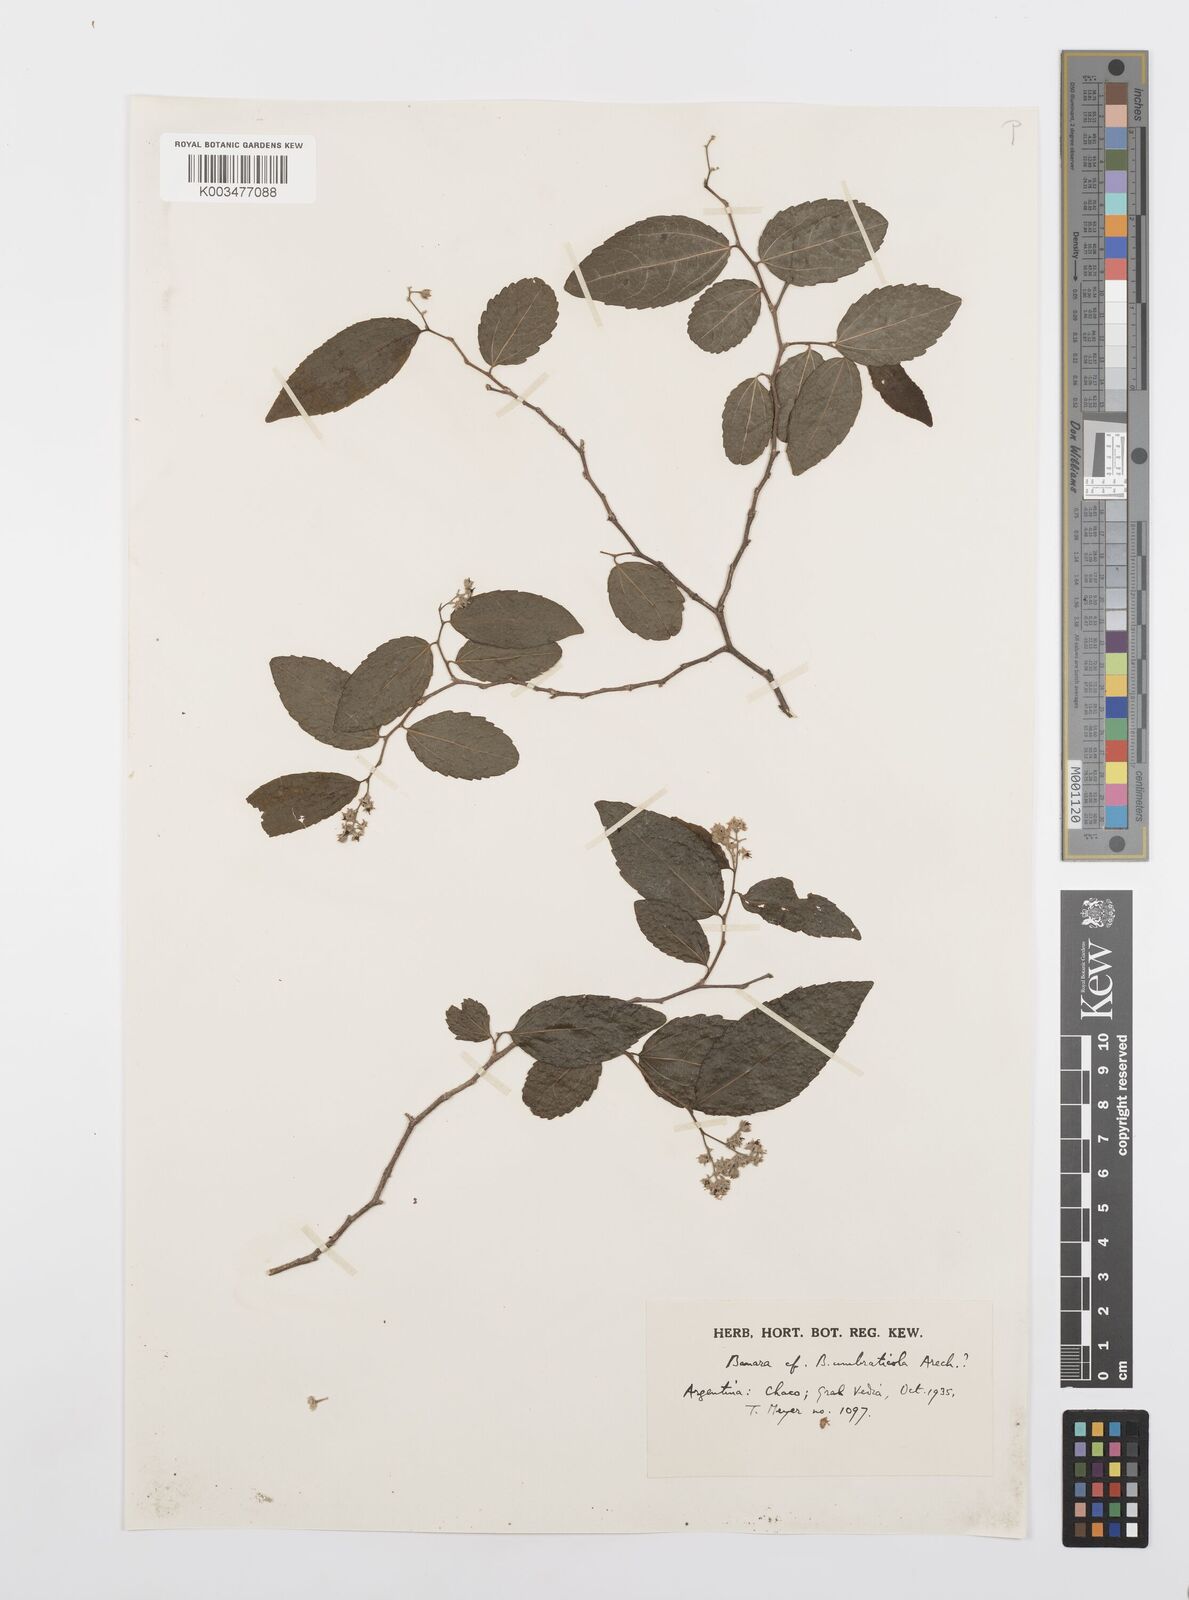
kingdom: Plantae
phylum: Tracheophyta
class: Magnoliopsida
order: Malpighiales
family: Salicaceae
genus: Banara
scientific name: Banara umbraticola
